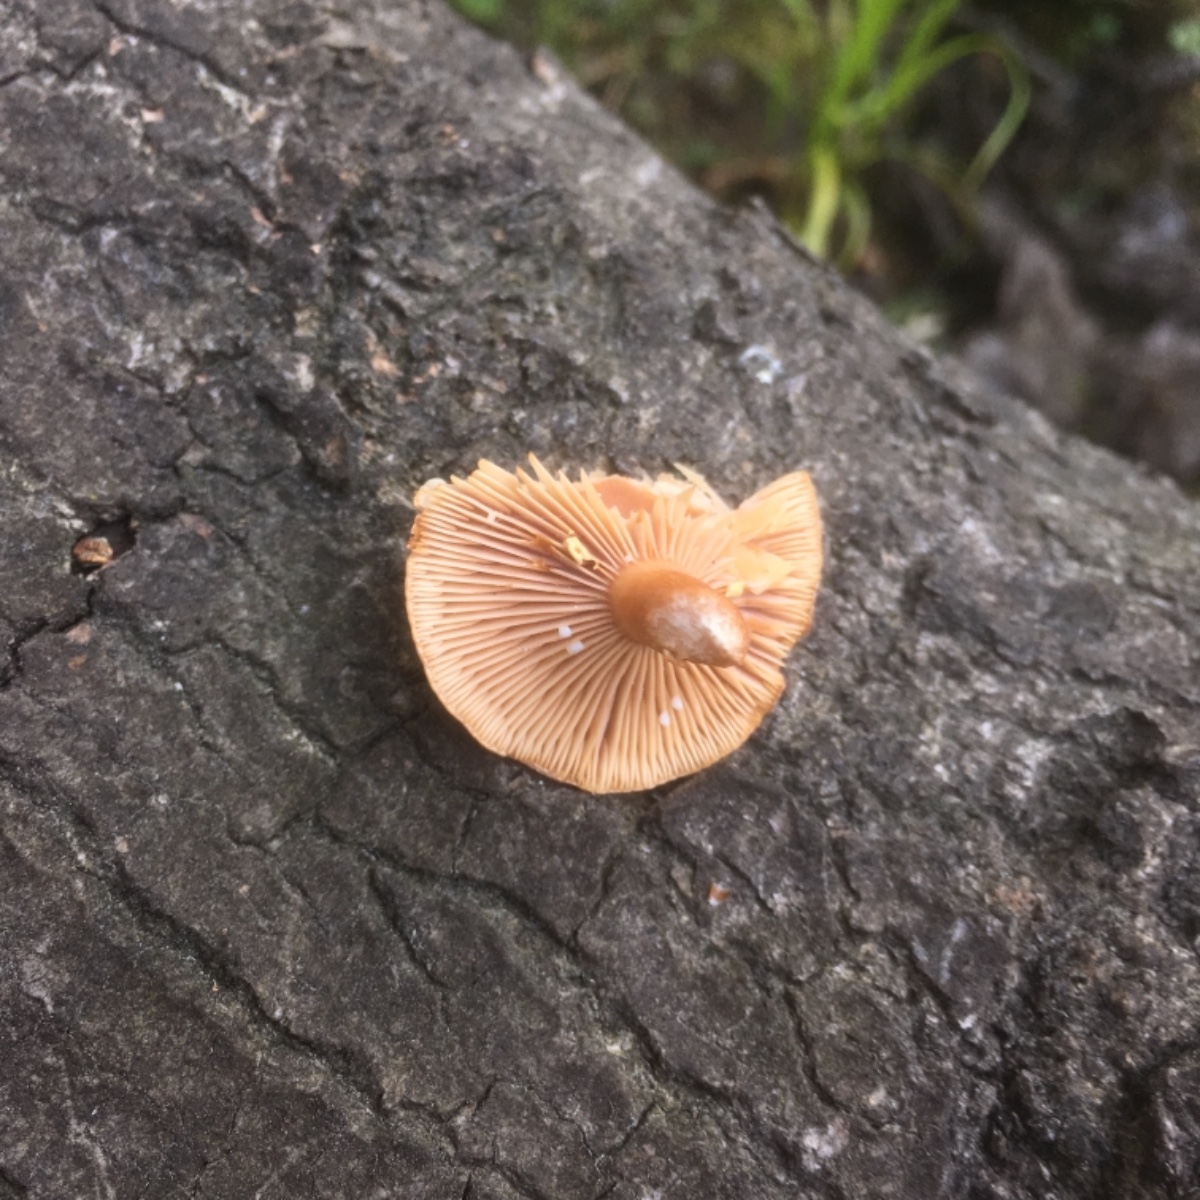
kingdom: Fungi
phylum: Basidiomycota
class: Agaricomycetes
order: Russulales
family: Russulaceae
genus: Lactarius
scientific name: Lactarius aurantiacus
